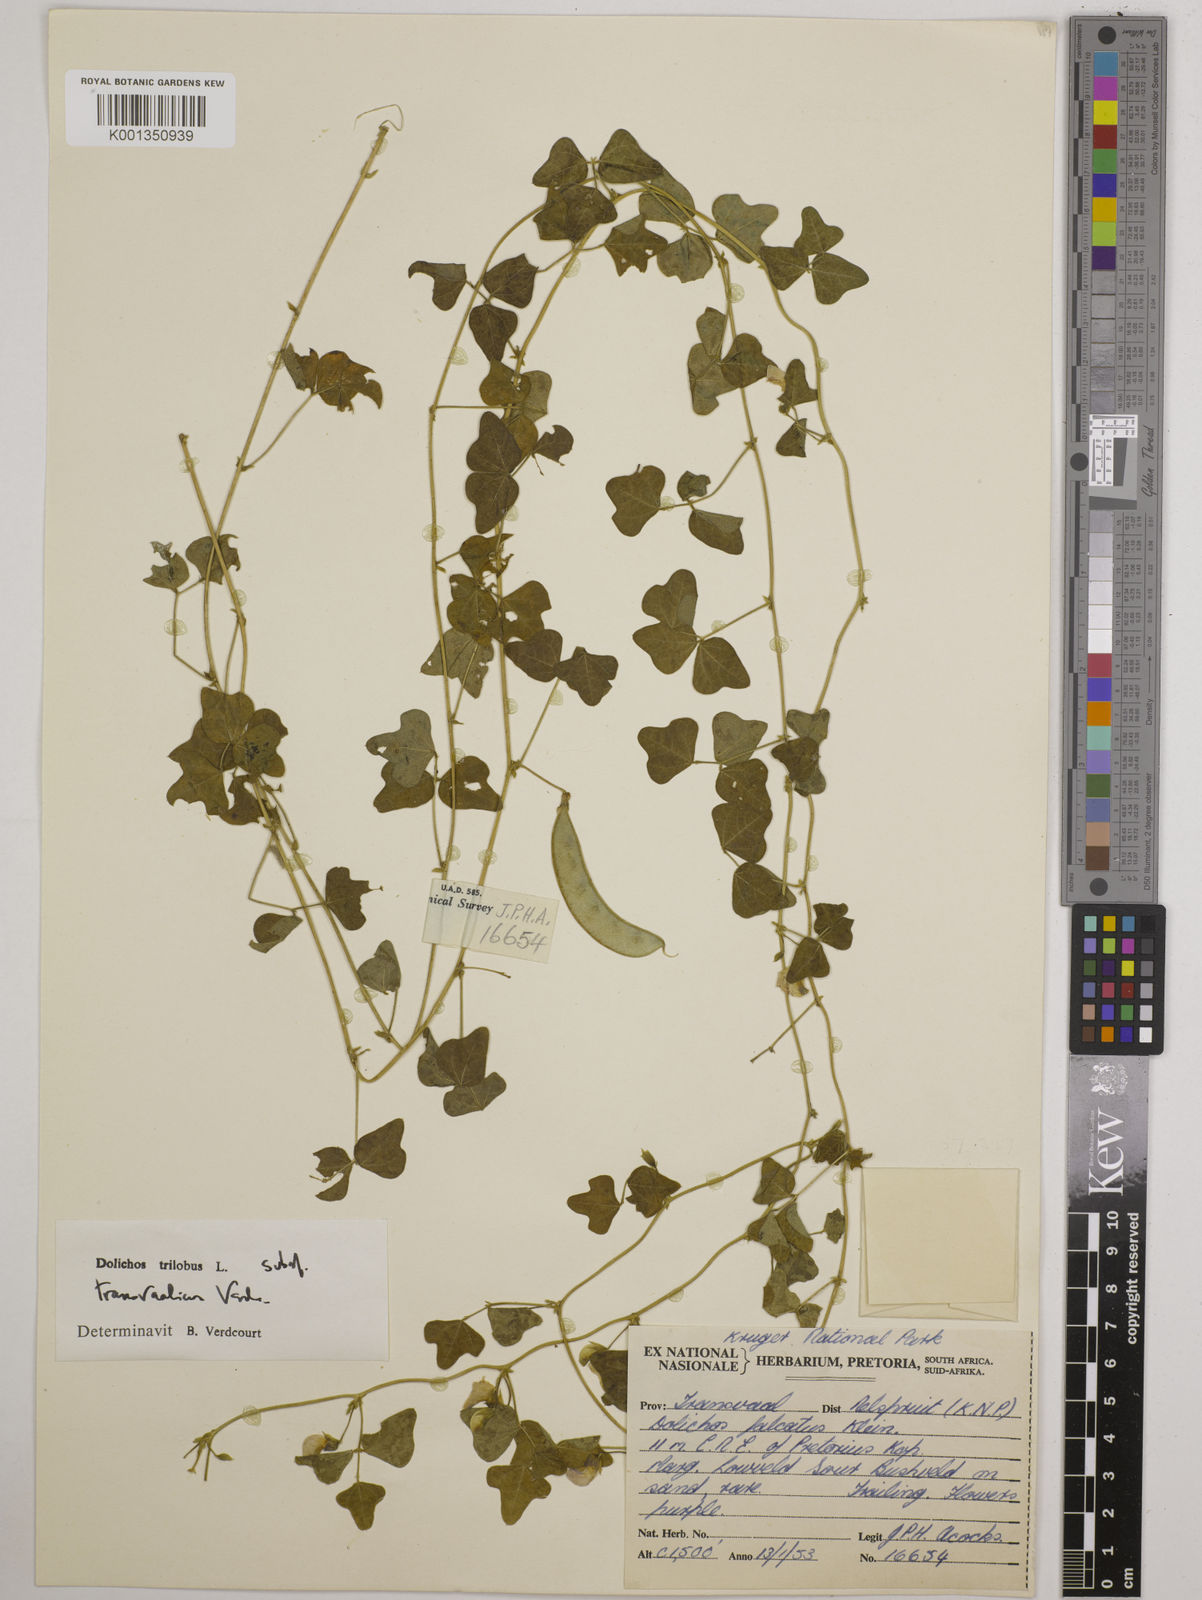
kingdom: Plantae
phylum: Tracheophyta
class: Magnoliopsida
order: Fabales
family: Fabaceae
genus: Dolichos
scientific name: Dolichos
